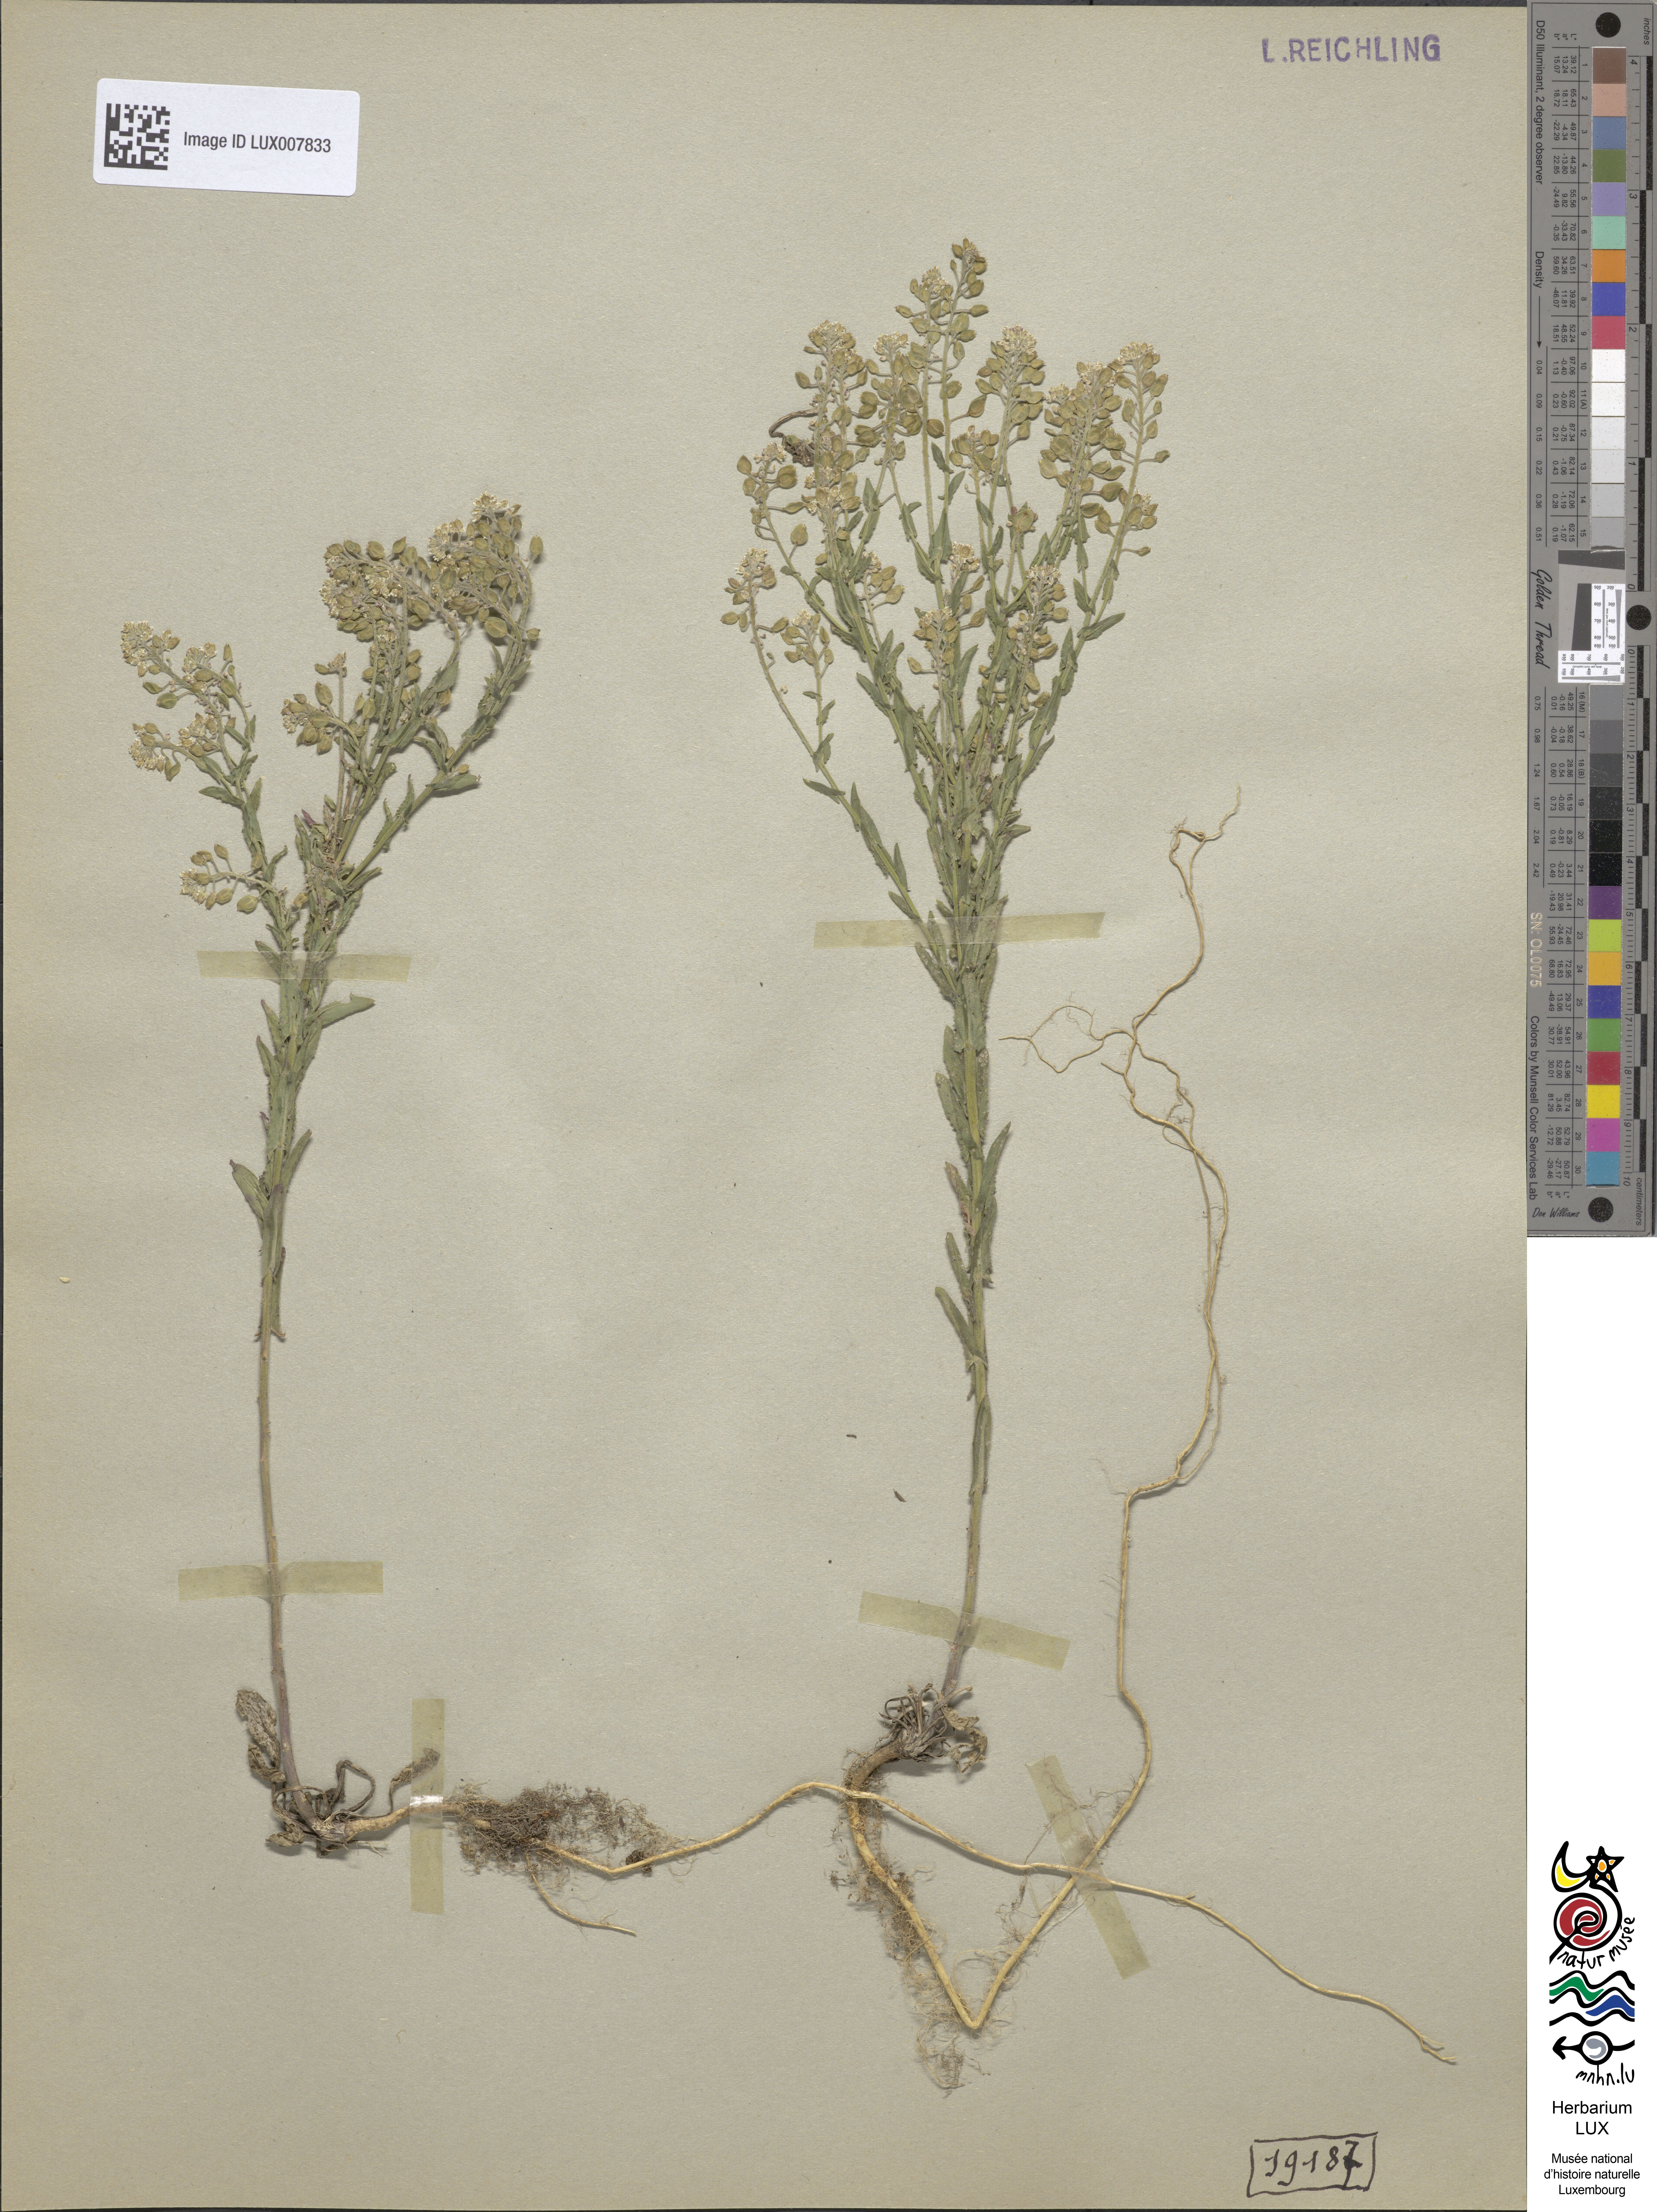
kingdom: Plantae
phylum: Tracheophyta
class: Magnoliopsida
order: Brassicales
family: Brassicaceae
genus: Lepidium
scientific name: Lepidium campestre
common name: Field pepperwort
